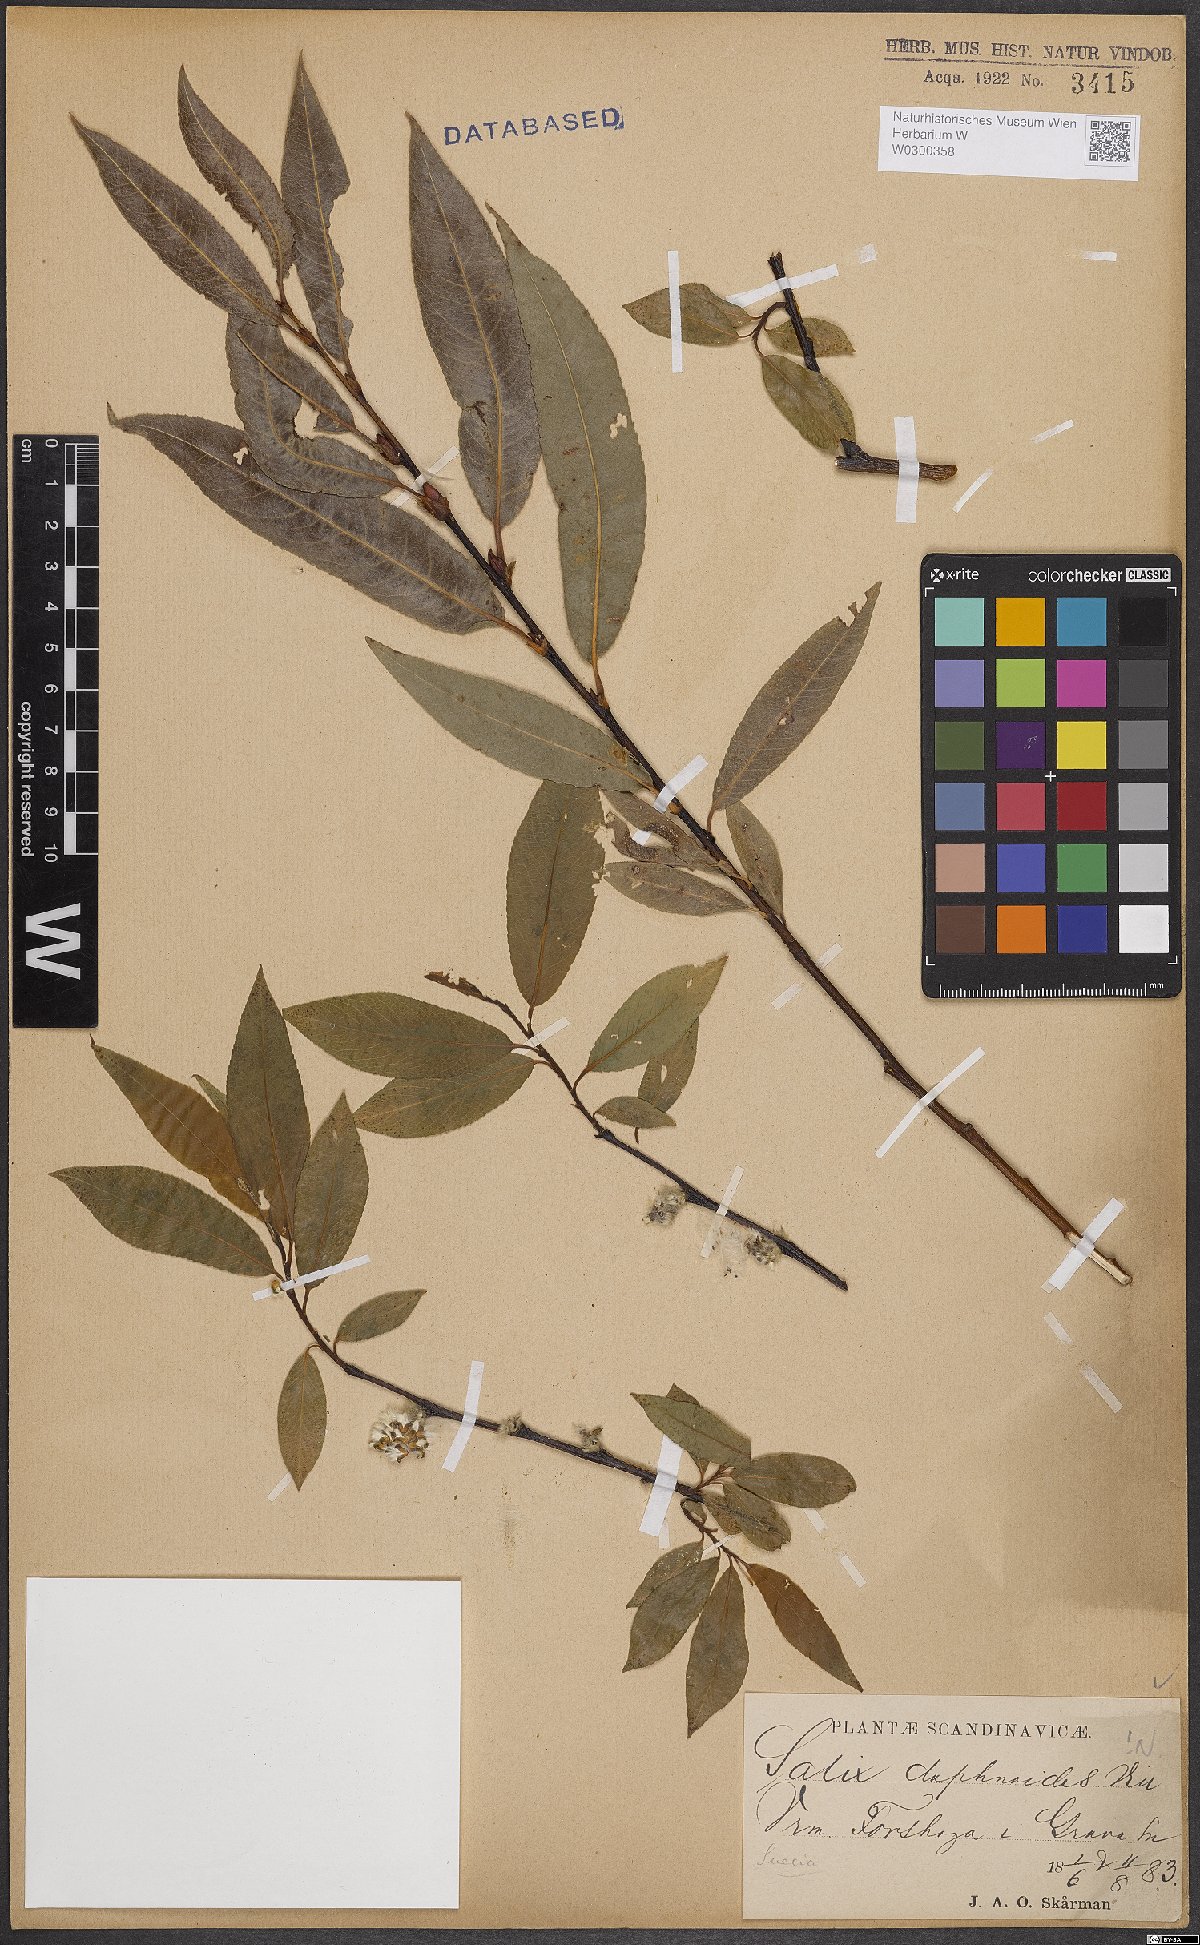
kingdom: Plantae
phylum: Tracheophyta
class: Magnoliopsida
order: Malpighiales
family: Salicaceae
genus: Salix
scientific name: Salix daphnoides
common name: European violet-willow
